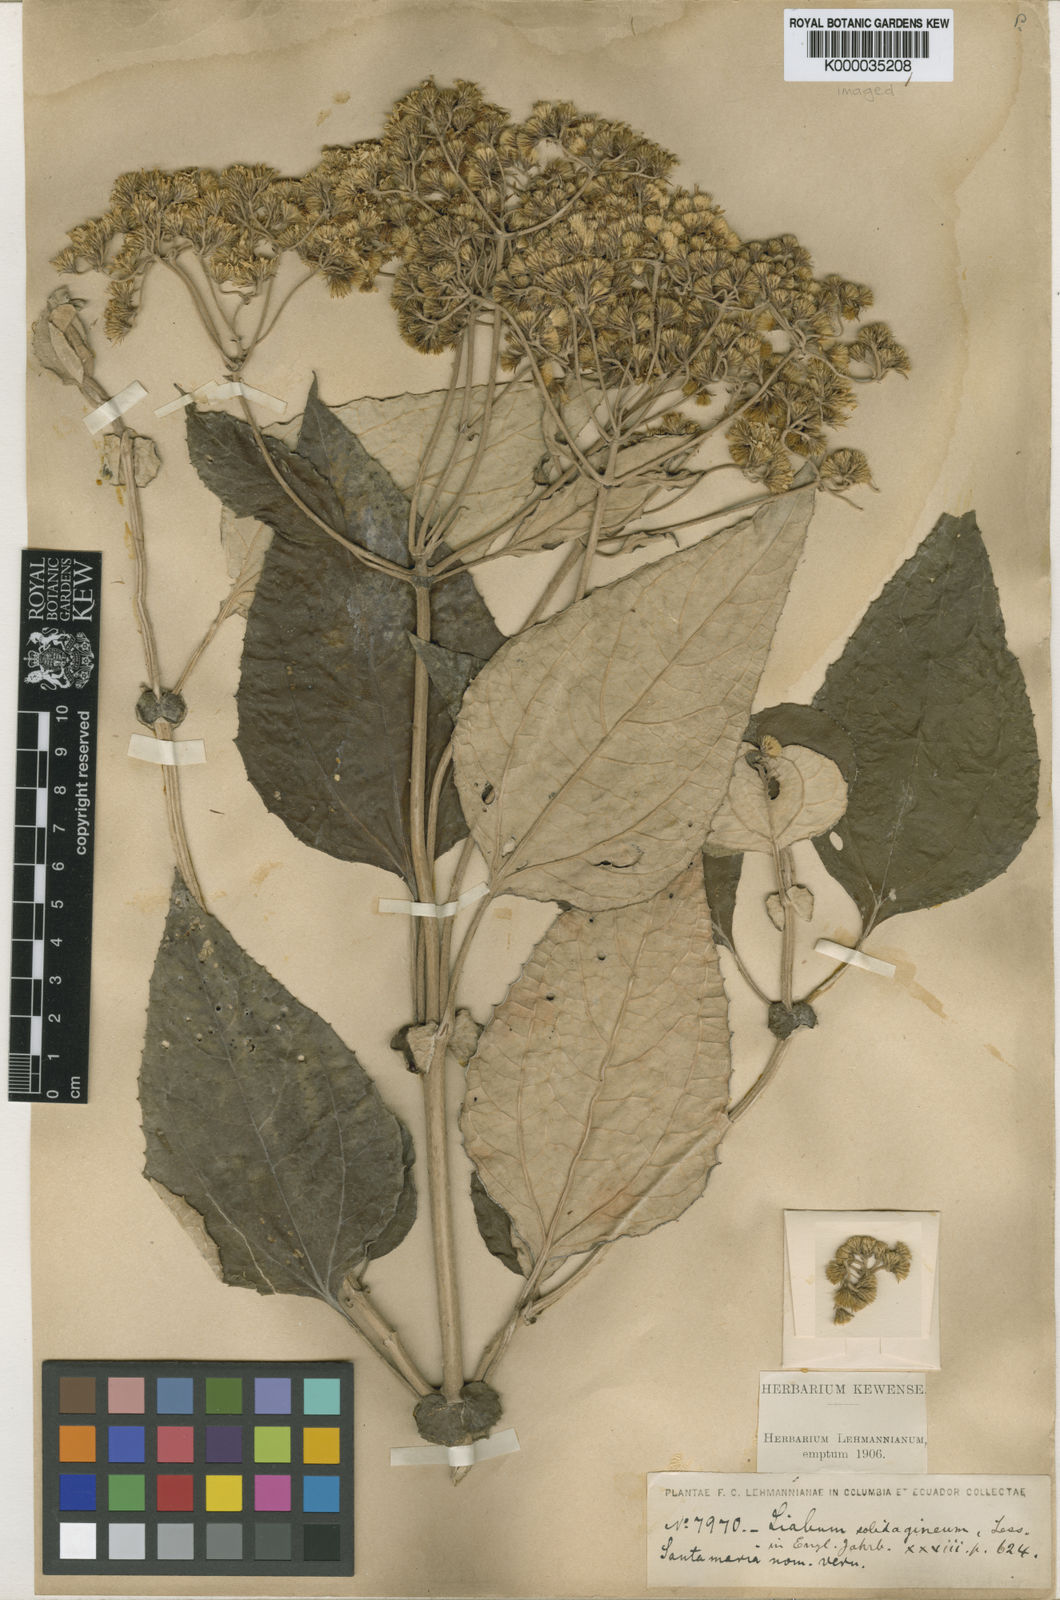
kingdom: Plantae
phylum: Tracheophyta
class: Magnoliopsida
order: Asterales
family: Asteraceae
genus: Liabum
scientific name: Liabum solidagineum
